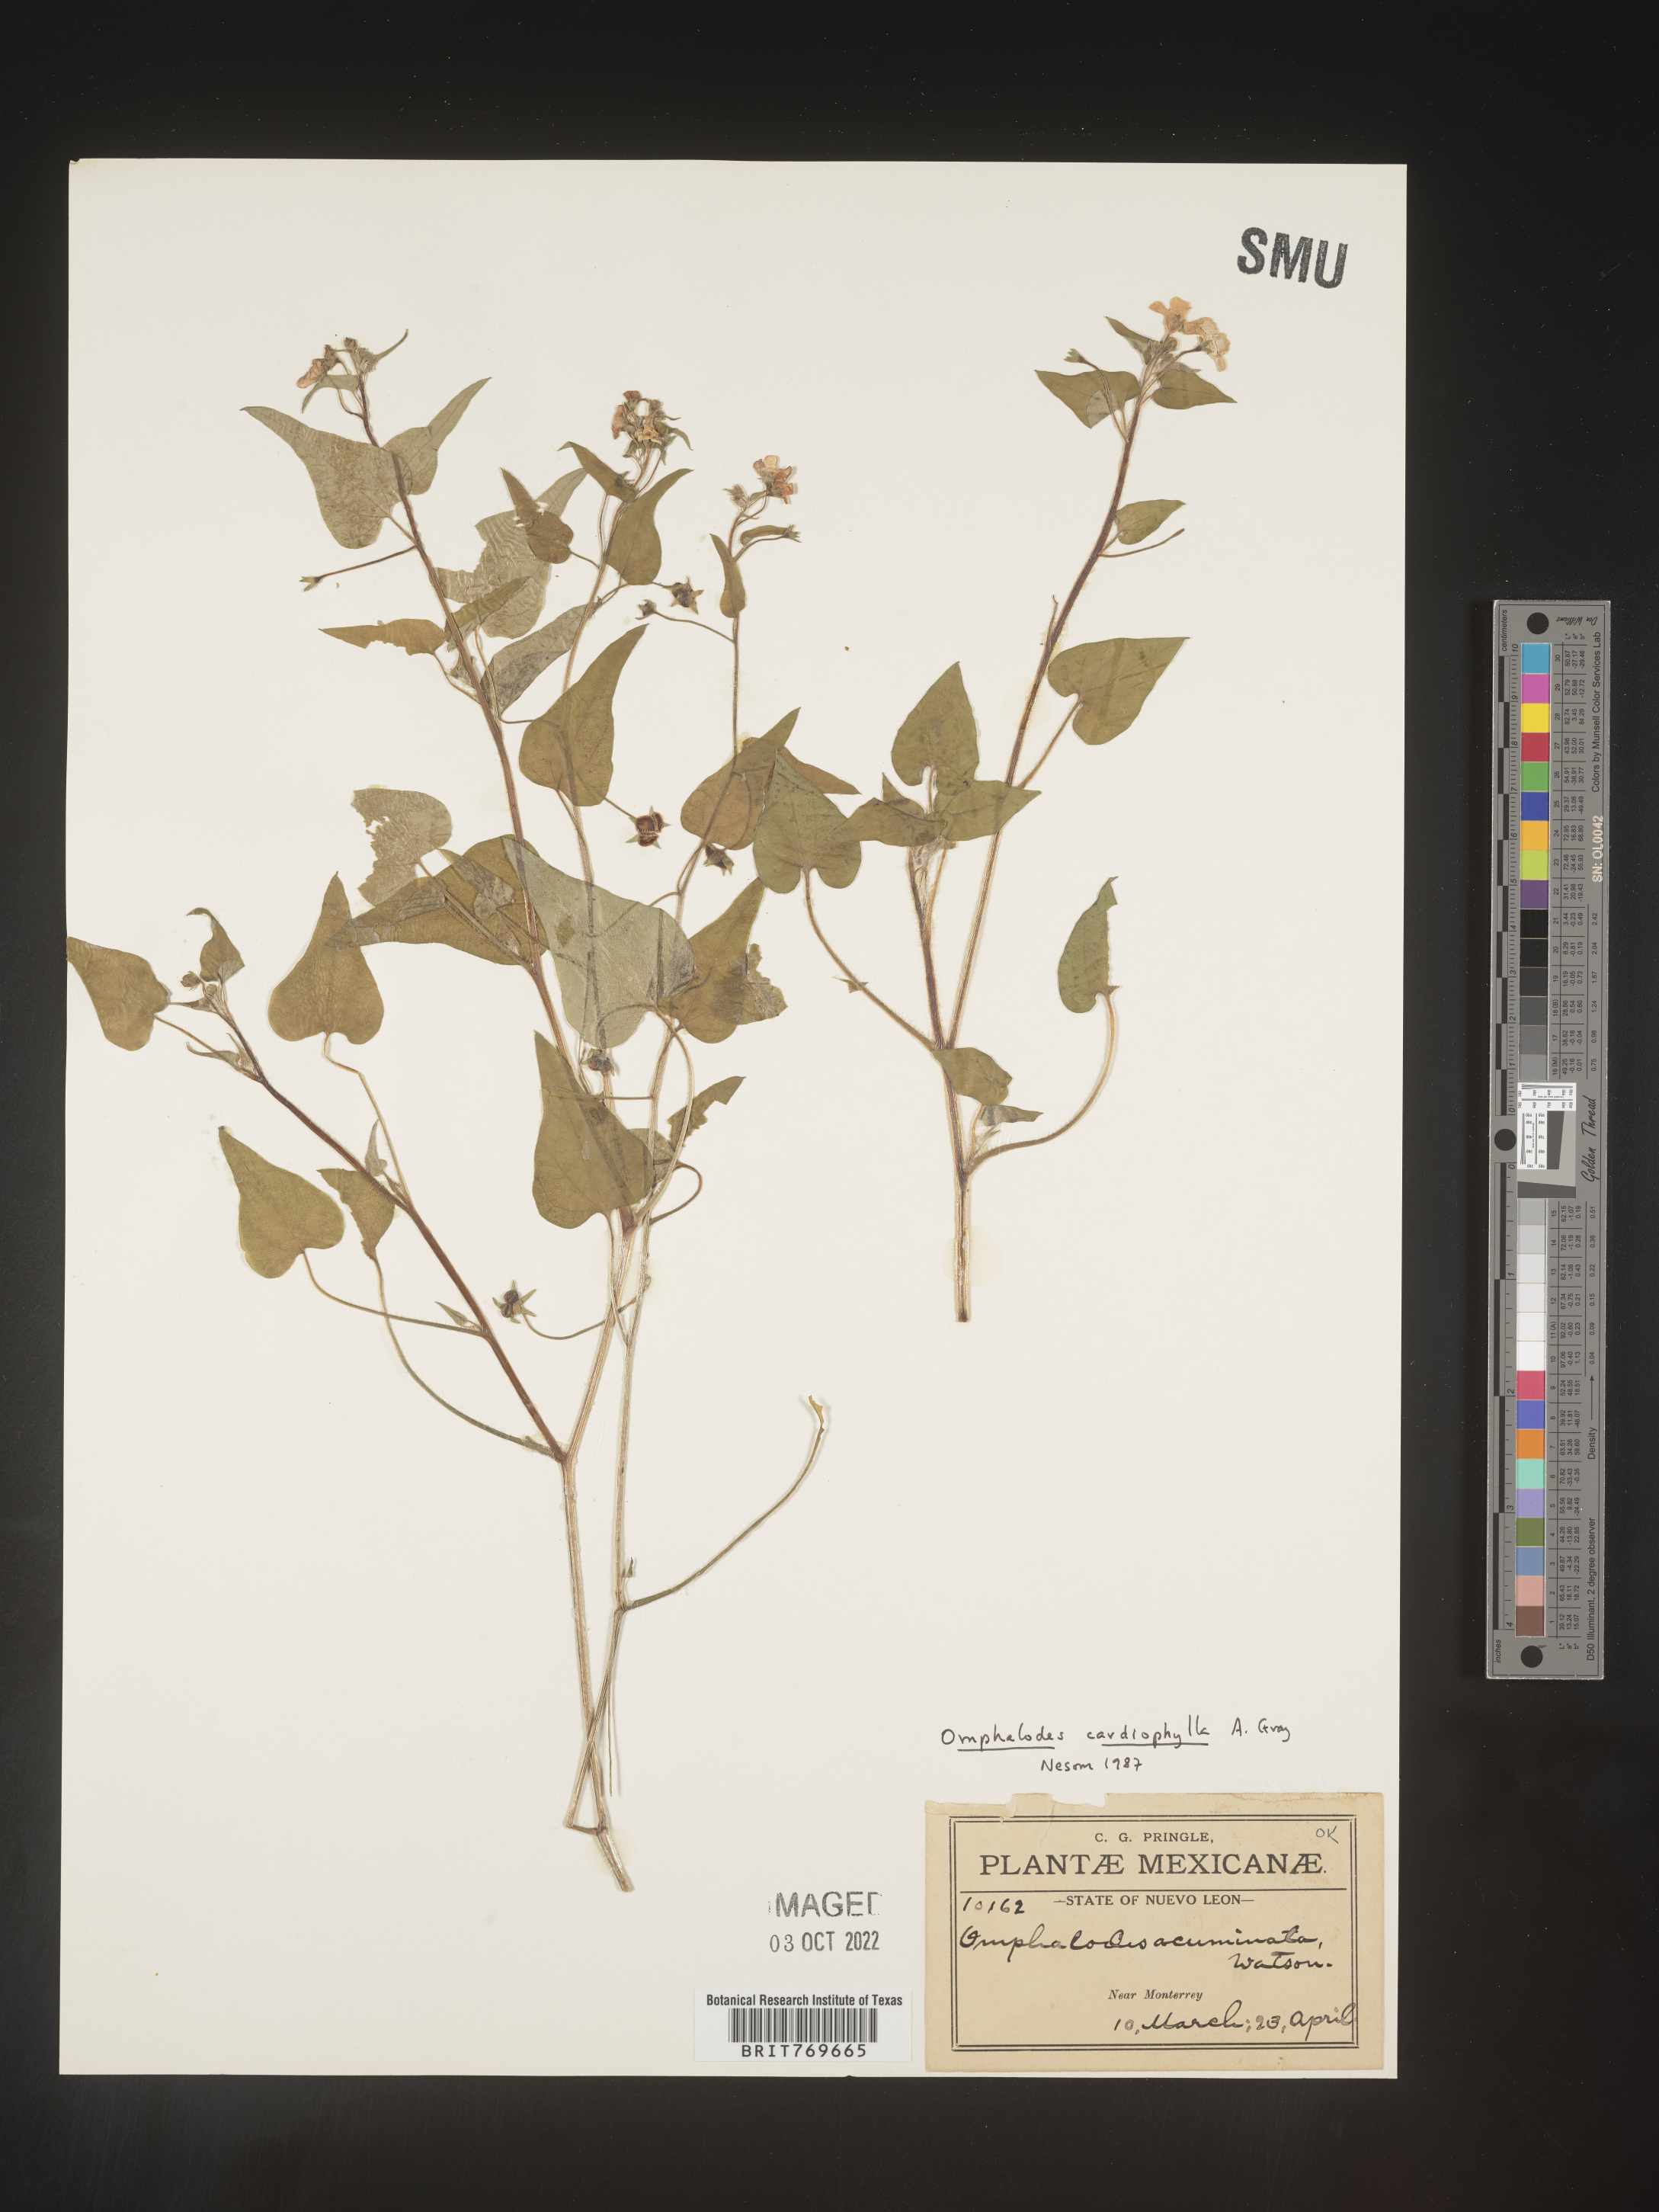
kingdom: Plantae
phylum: Tracheophyta
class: Magnoliopsida
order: Boraginales
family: Boraginaceae
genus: Omphalodes
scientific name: Omphalodes
